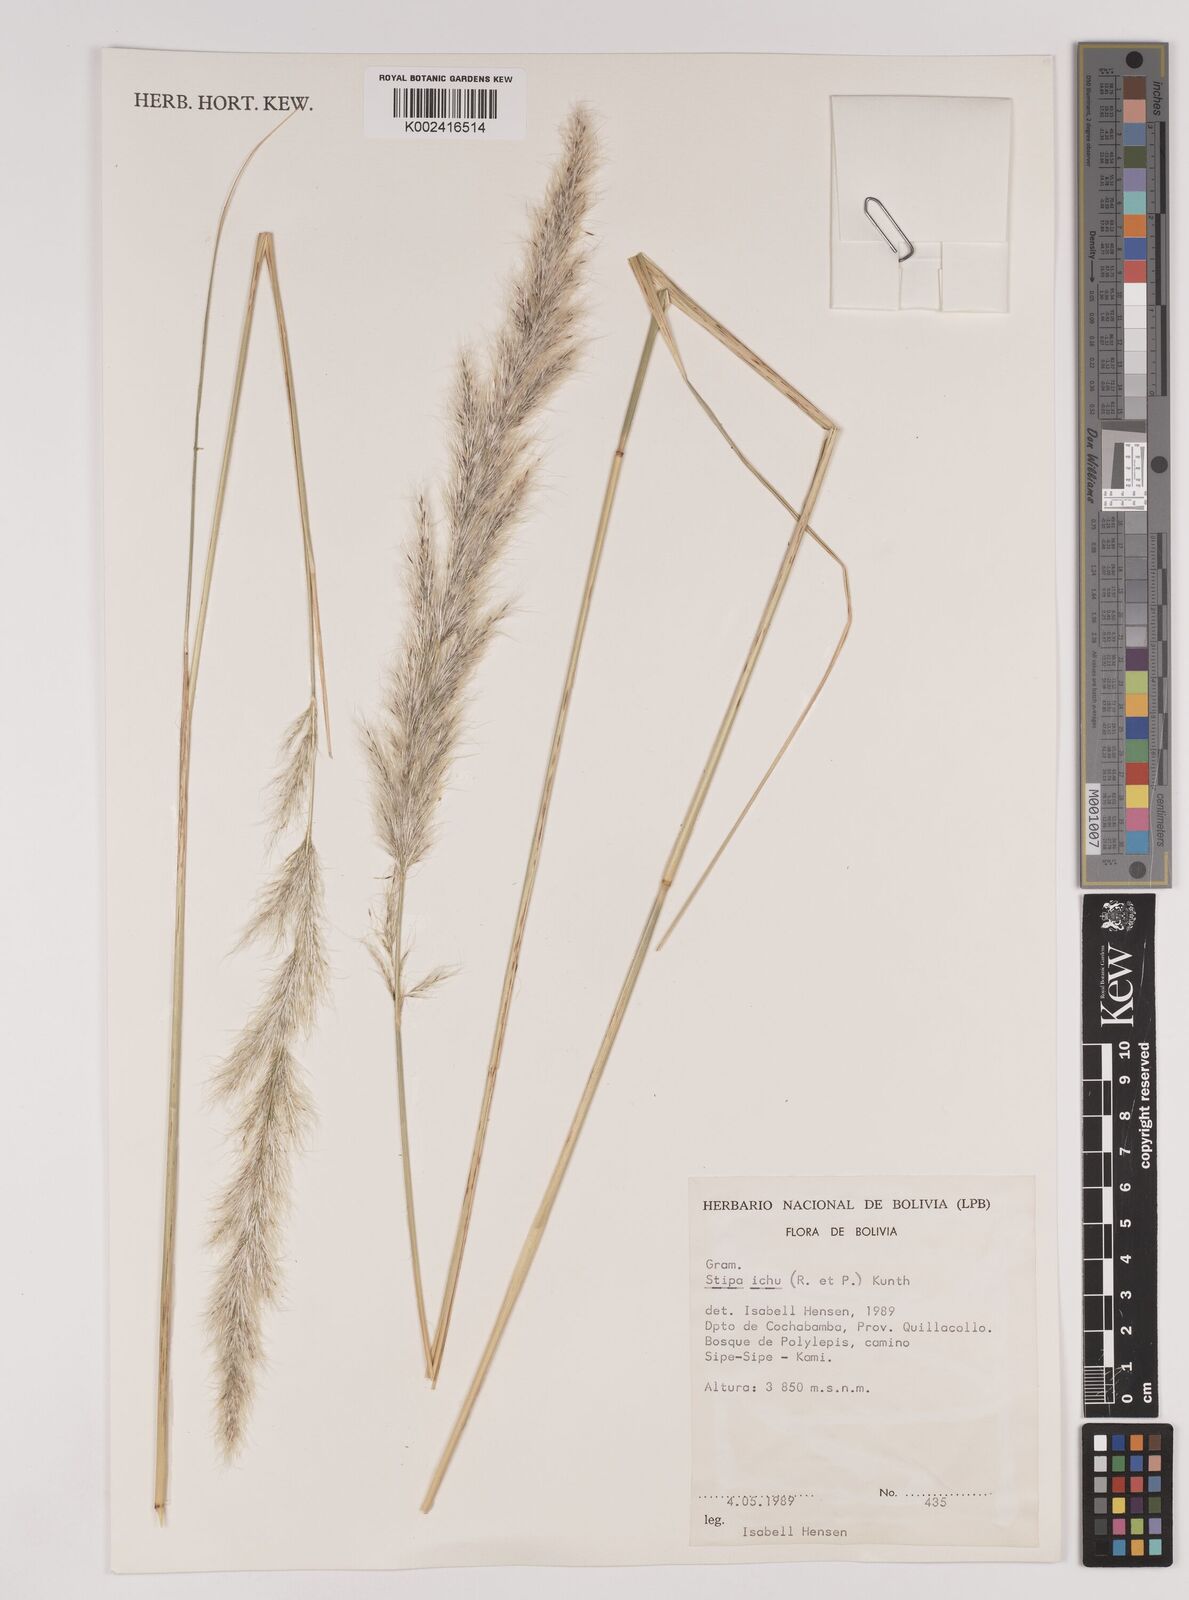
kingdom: Plantae
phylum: Tracheophyta
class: Liliopsida
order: Poales
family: Poaceae
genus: Jarava
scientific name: Jarava ichu
